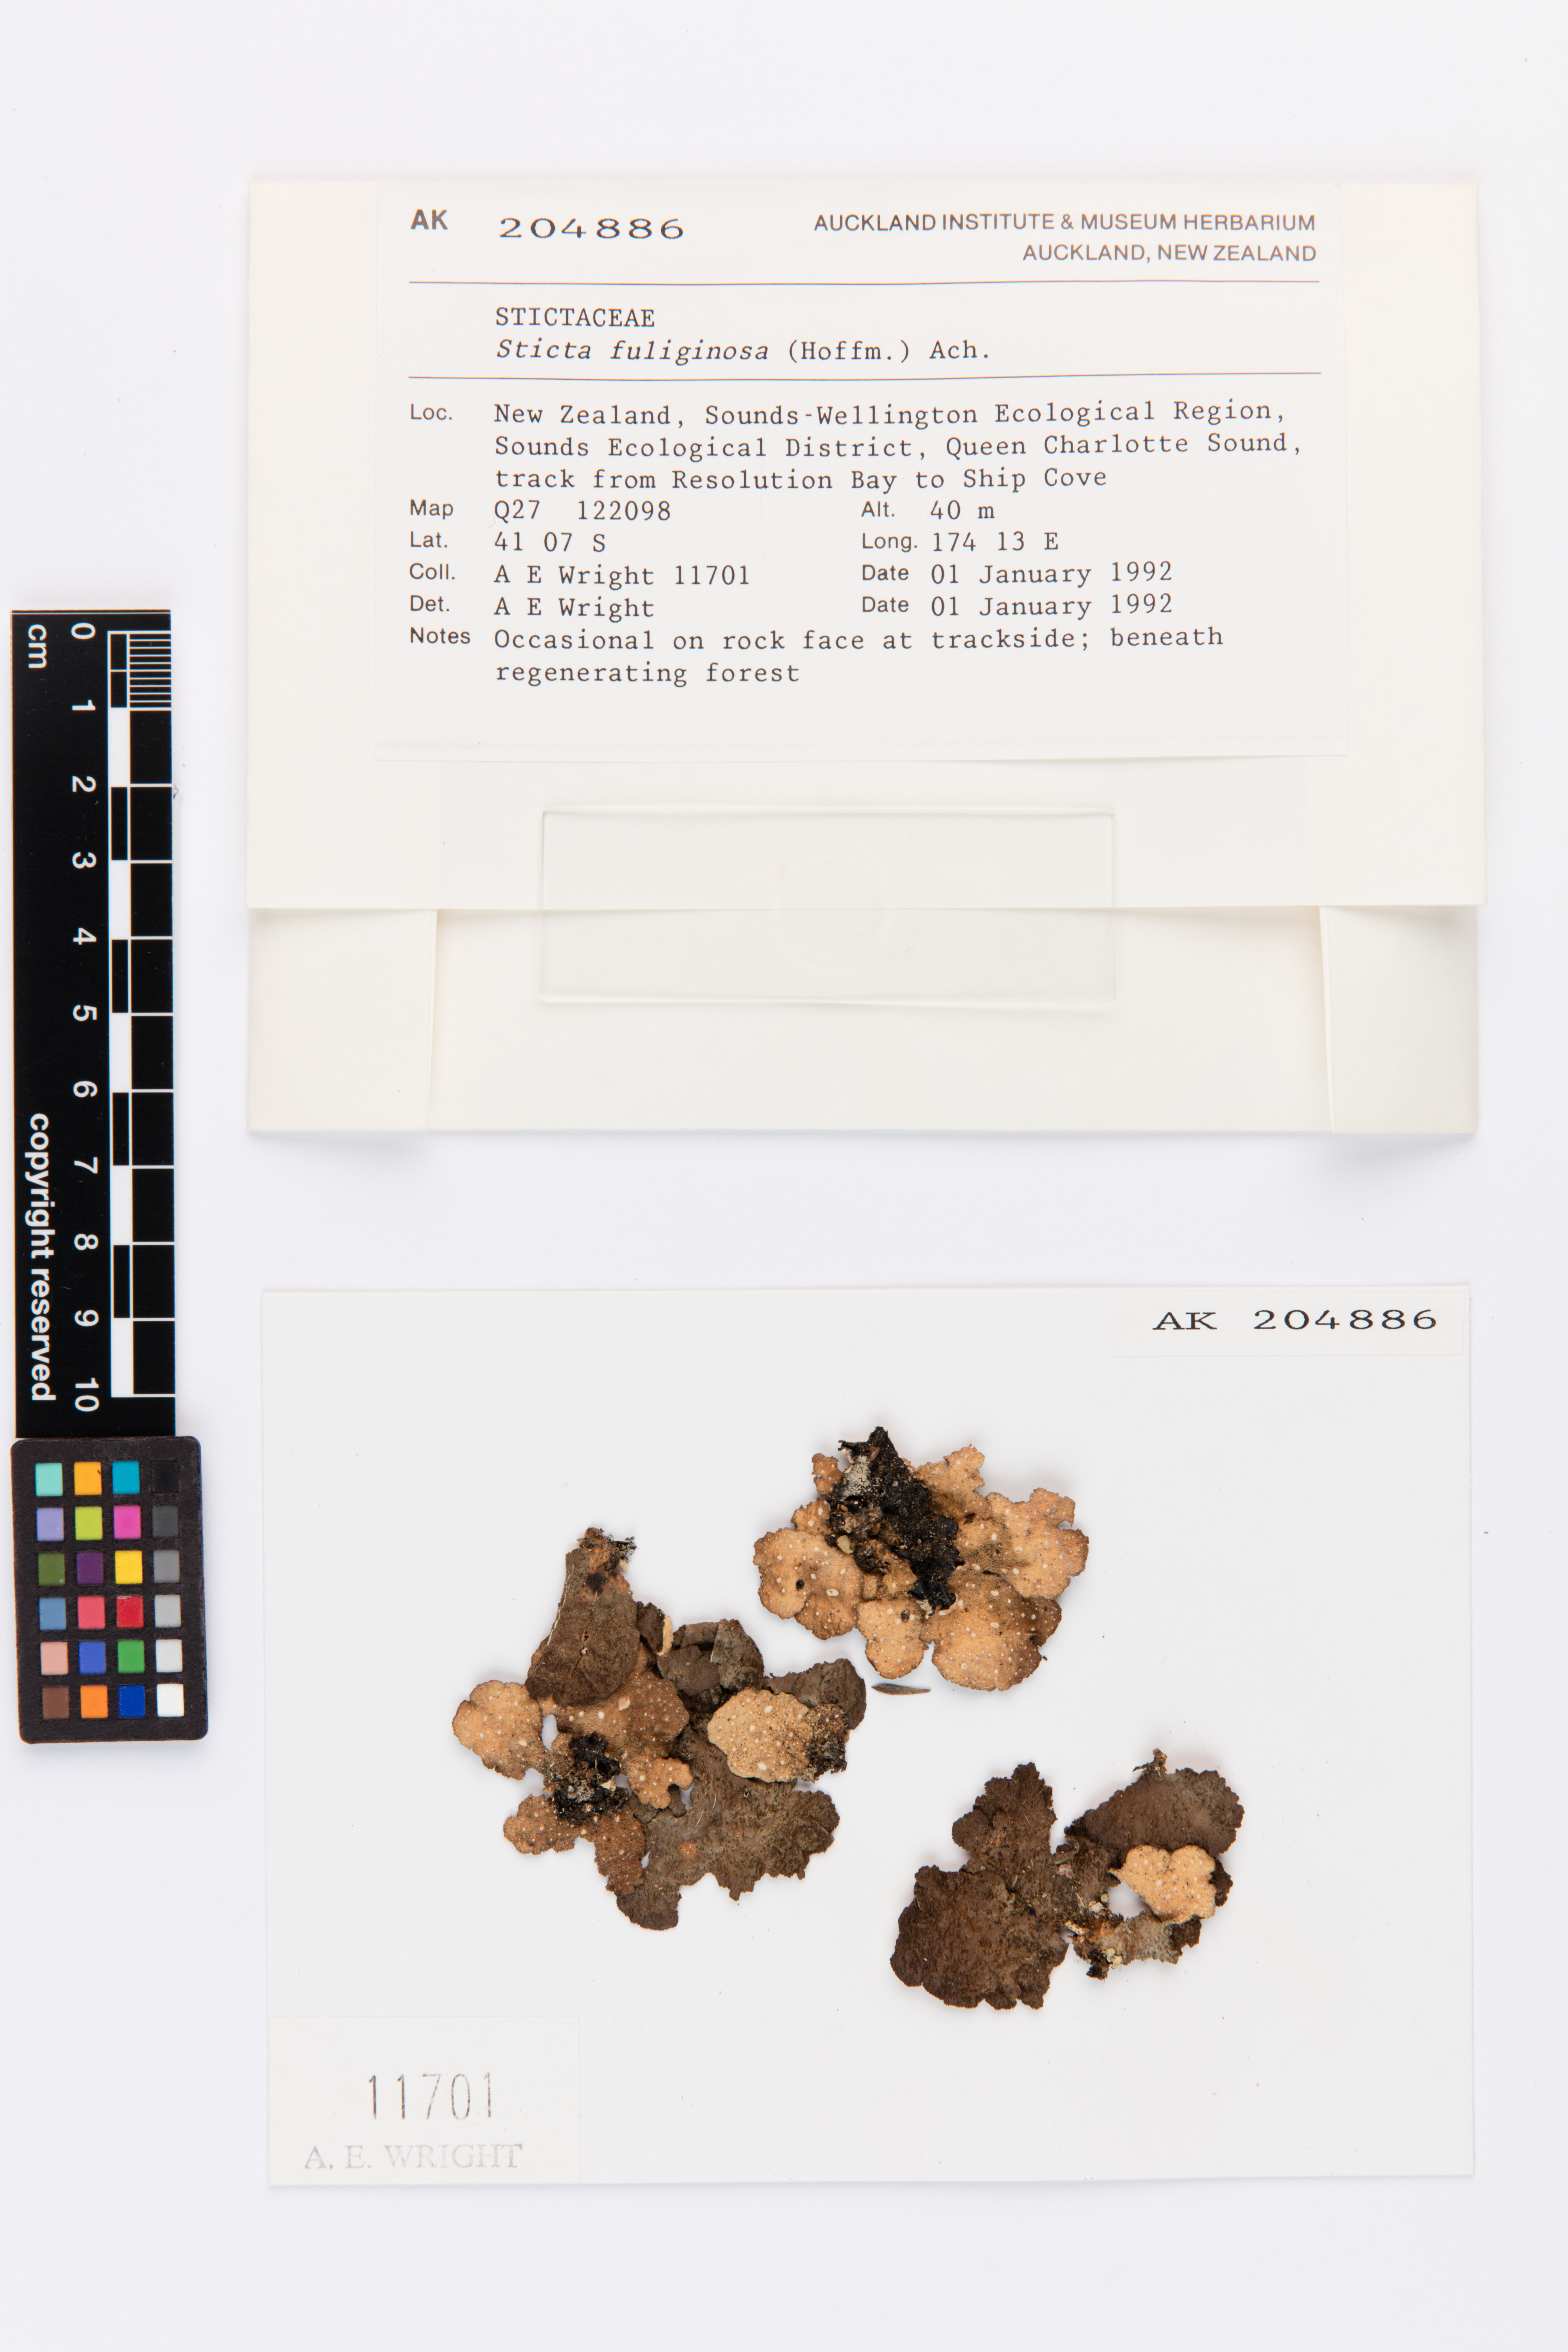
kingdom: Fungi
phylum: Ascomycota
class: Lecanoromycetes
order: Peltigerales
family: Lobariaceae
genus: Sticta
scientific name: Sticta fuliginosa
